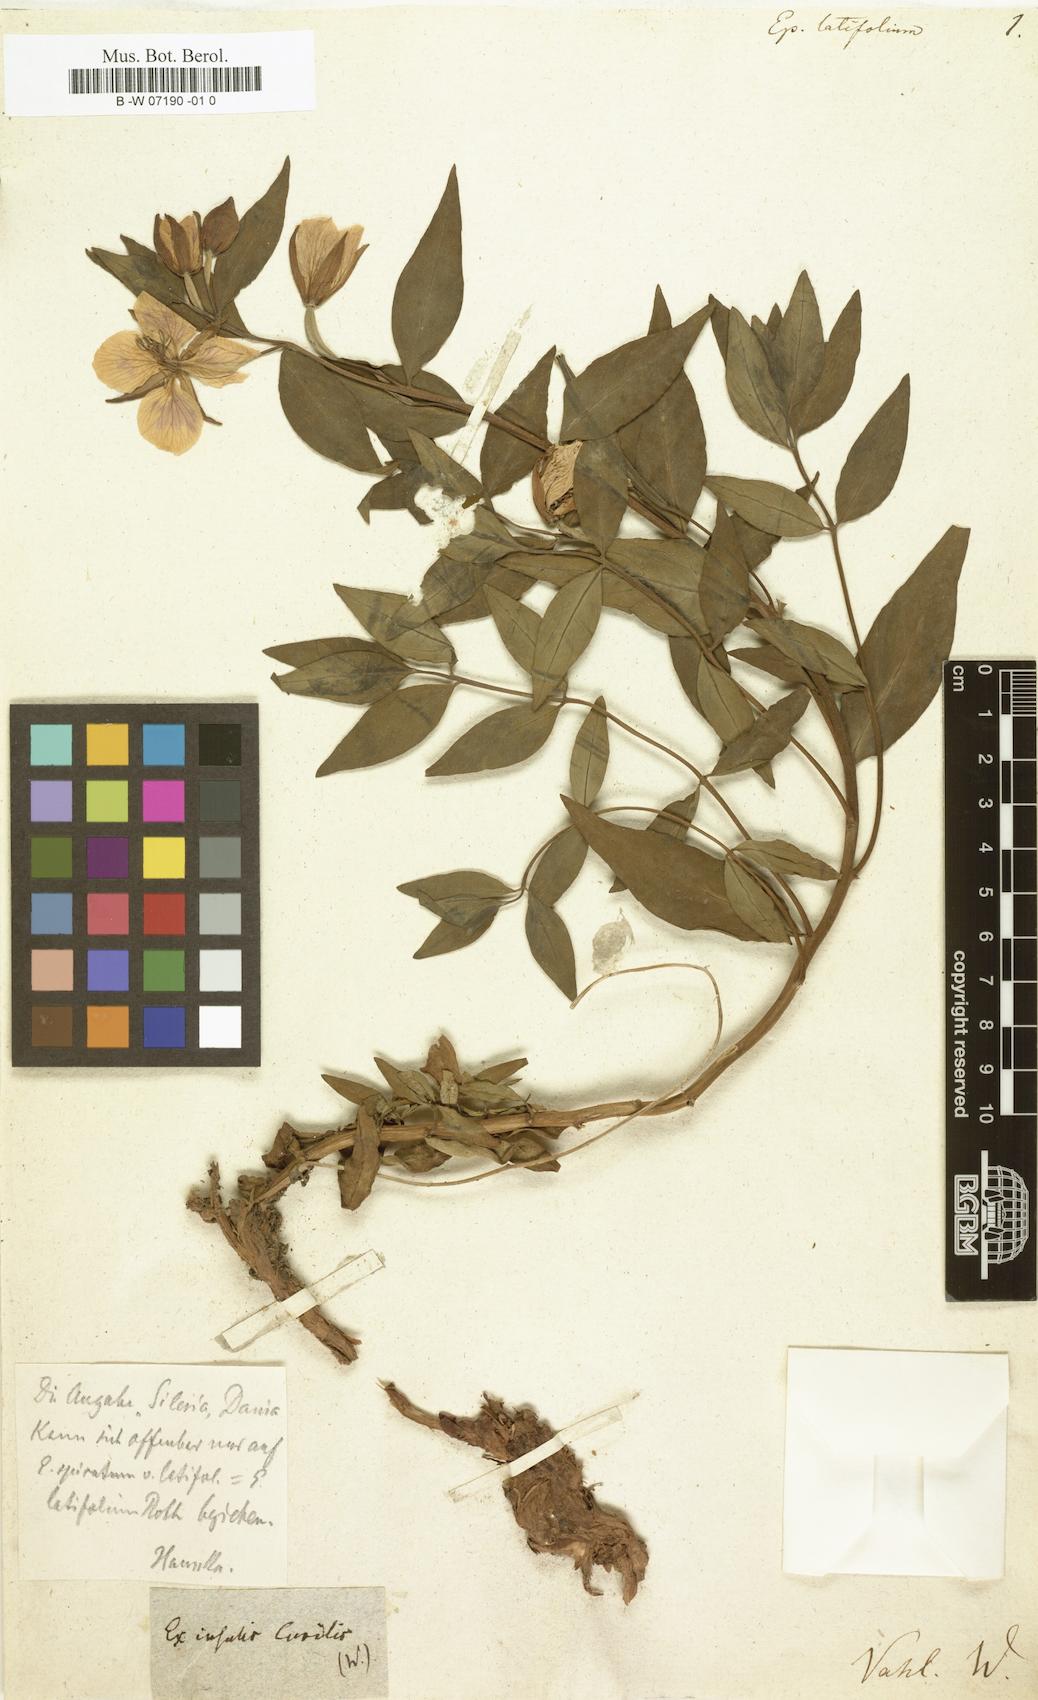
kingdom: Plantae
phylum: Tracheophyta
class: Magnoliopsida
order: Myrtales
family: Onagraceae
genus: Chamaenerion
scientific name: Chamaenerion
